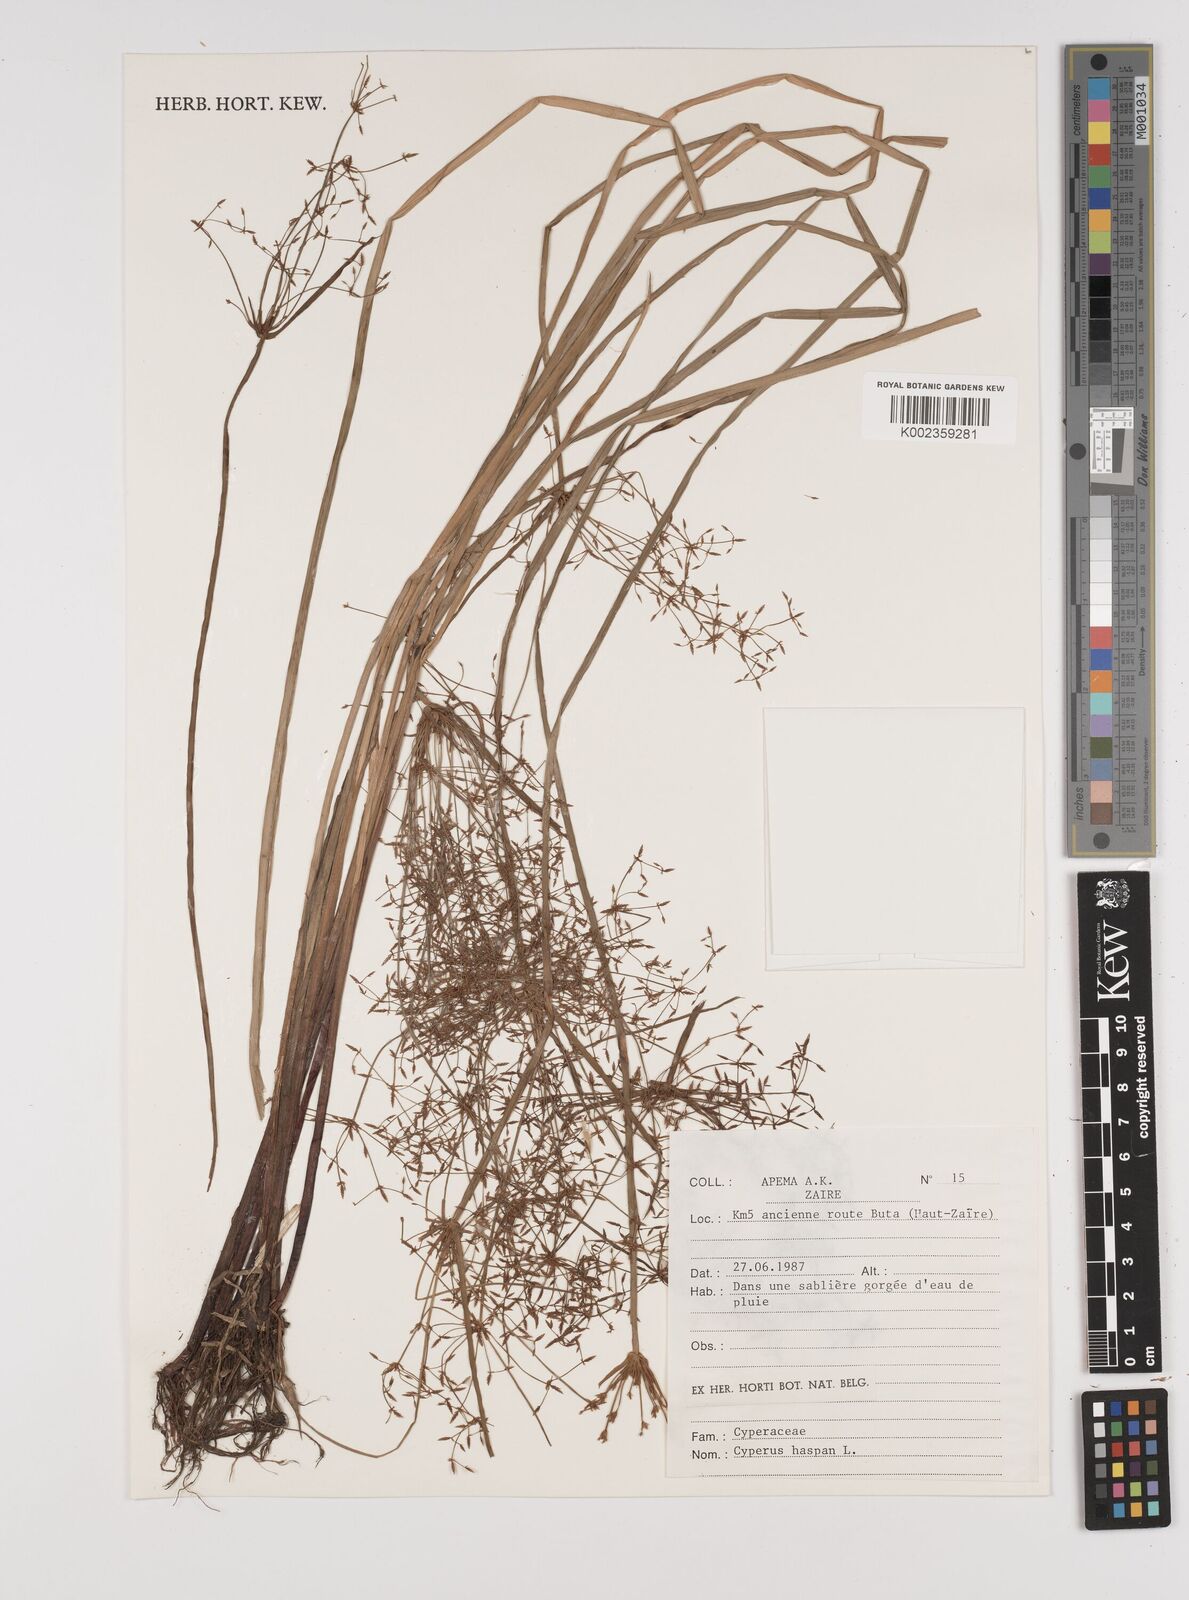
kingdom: Plantae
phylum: Tracheophyta
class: Liliopsida
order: Poales
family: Cyperaceae
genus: Cyperus
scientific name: Cyperus haspan
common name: Haspan flatsedge
